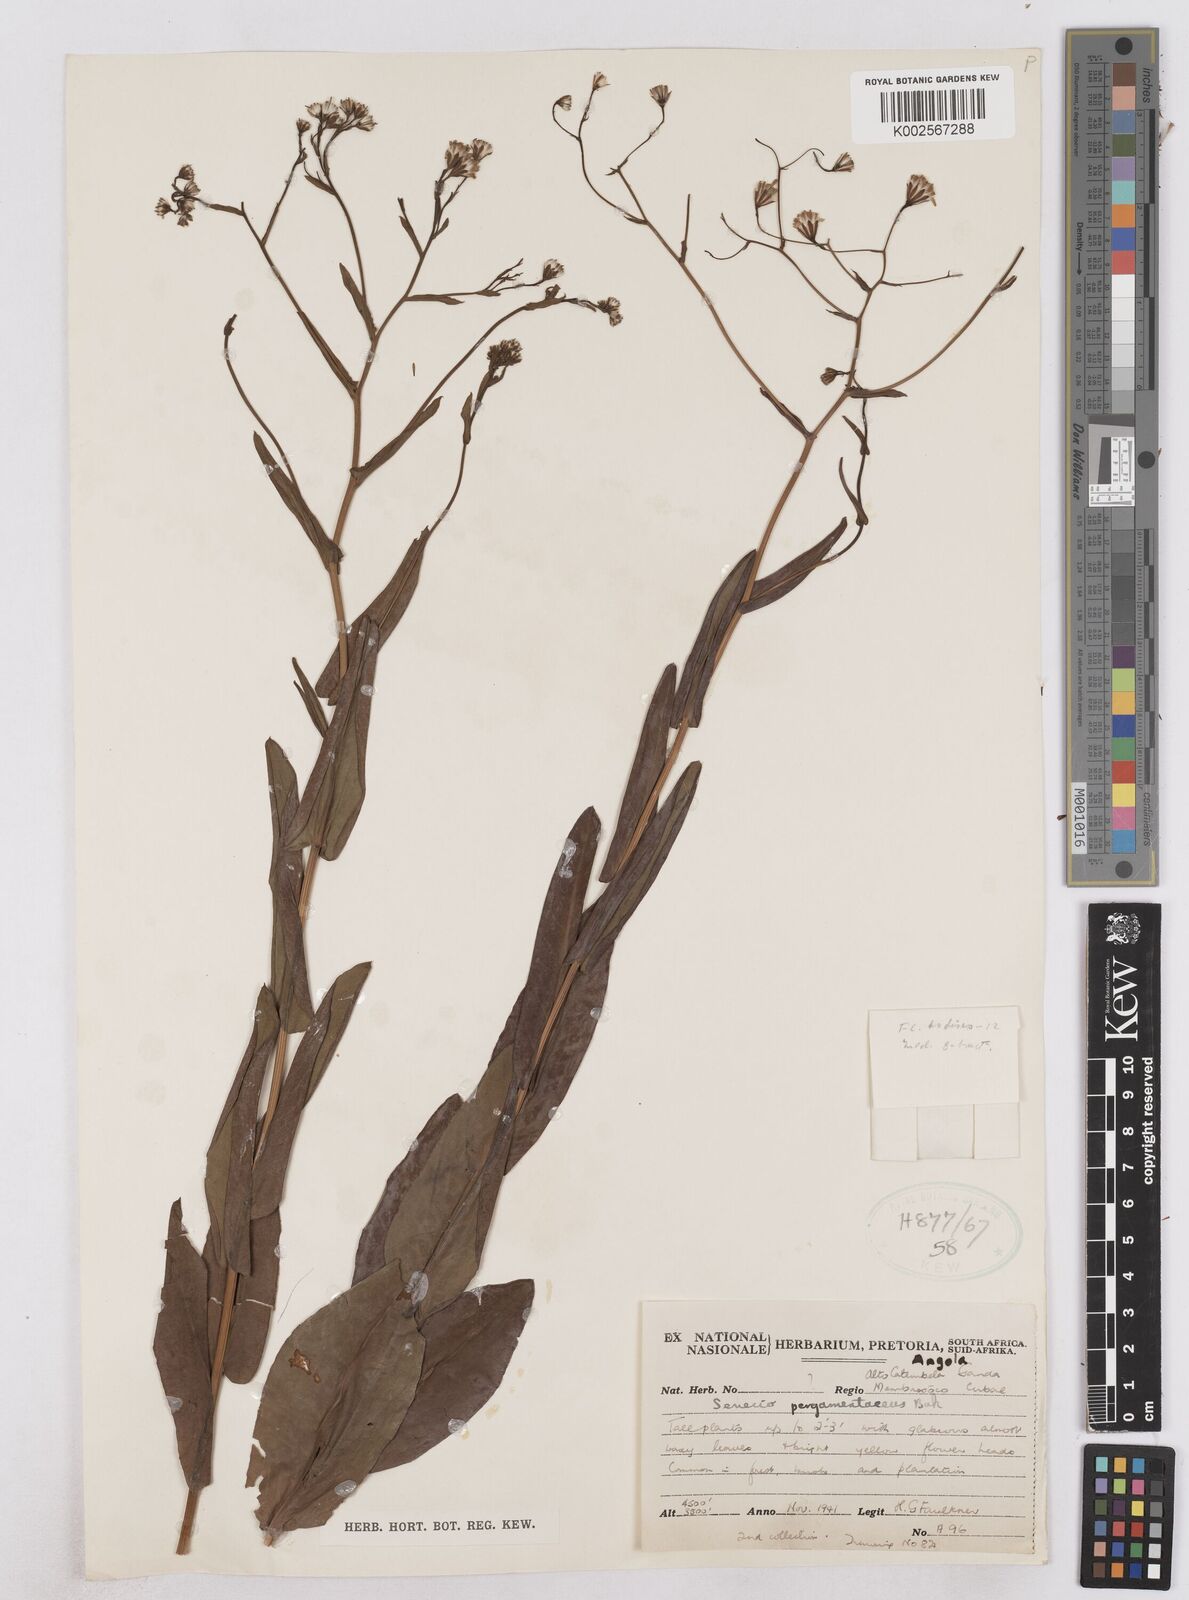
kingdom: Plantae
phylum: Tracheophyta
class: Magnoliopsida
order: Asterales
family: Asteraceae
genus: Senecio
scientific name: Senecio latifolius
